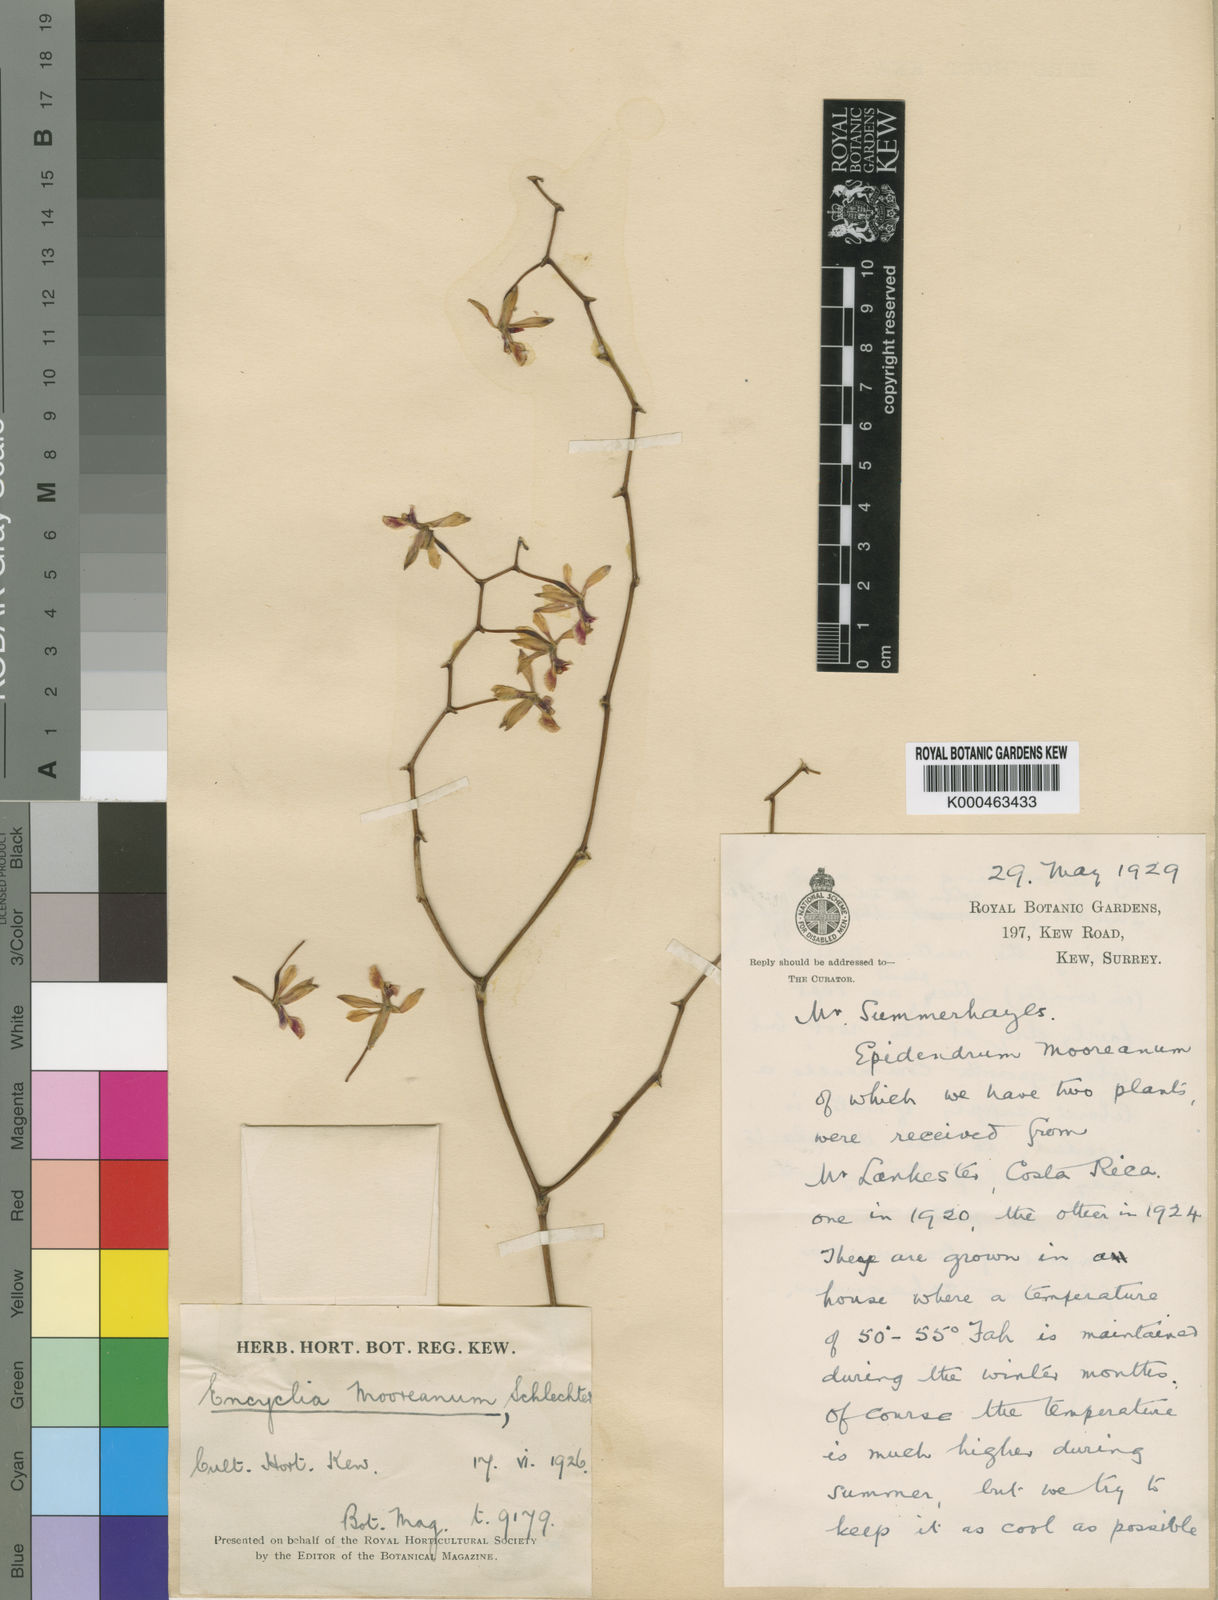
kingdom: Plantae
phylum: Tracheophyta
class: Liliopsida
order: Asparagales
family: Orchidaceae
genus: Encyclia
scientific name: Encyclia mooreana
